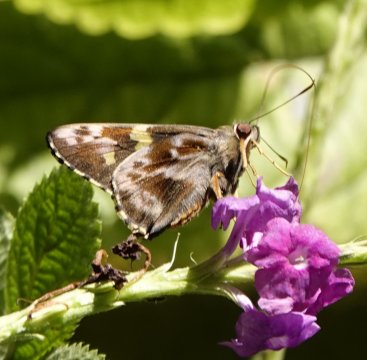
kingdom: Animalia
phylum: Arthropoda
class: Insecta
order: Lepidoptera
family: Hesperiidae
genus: Perichares
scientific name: Perichares philetes
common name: Green-backed Ruby-eye
